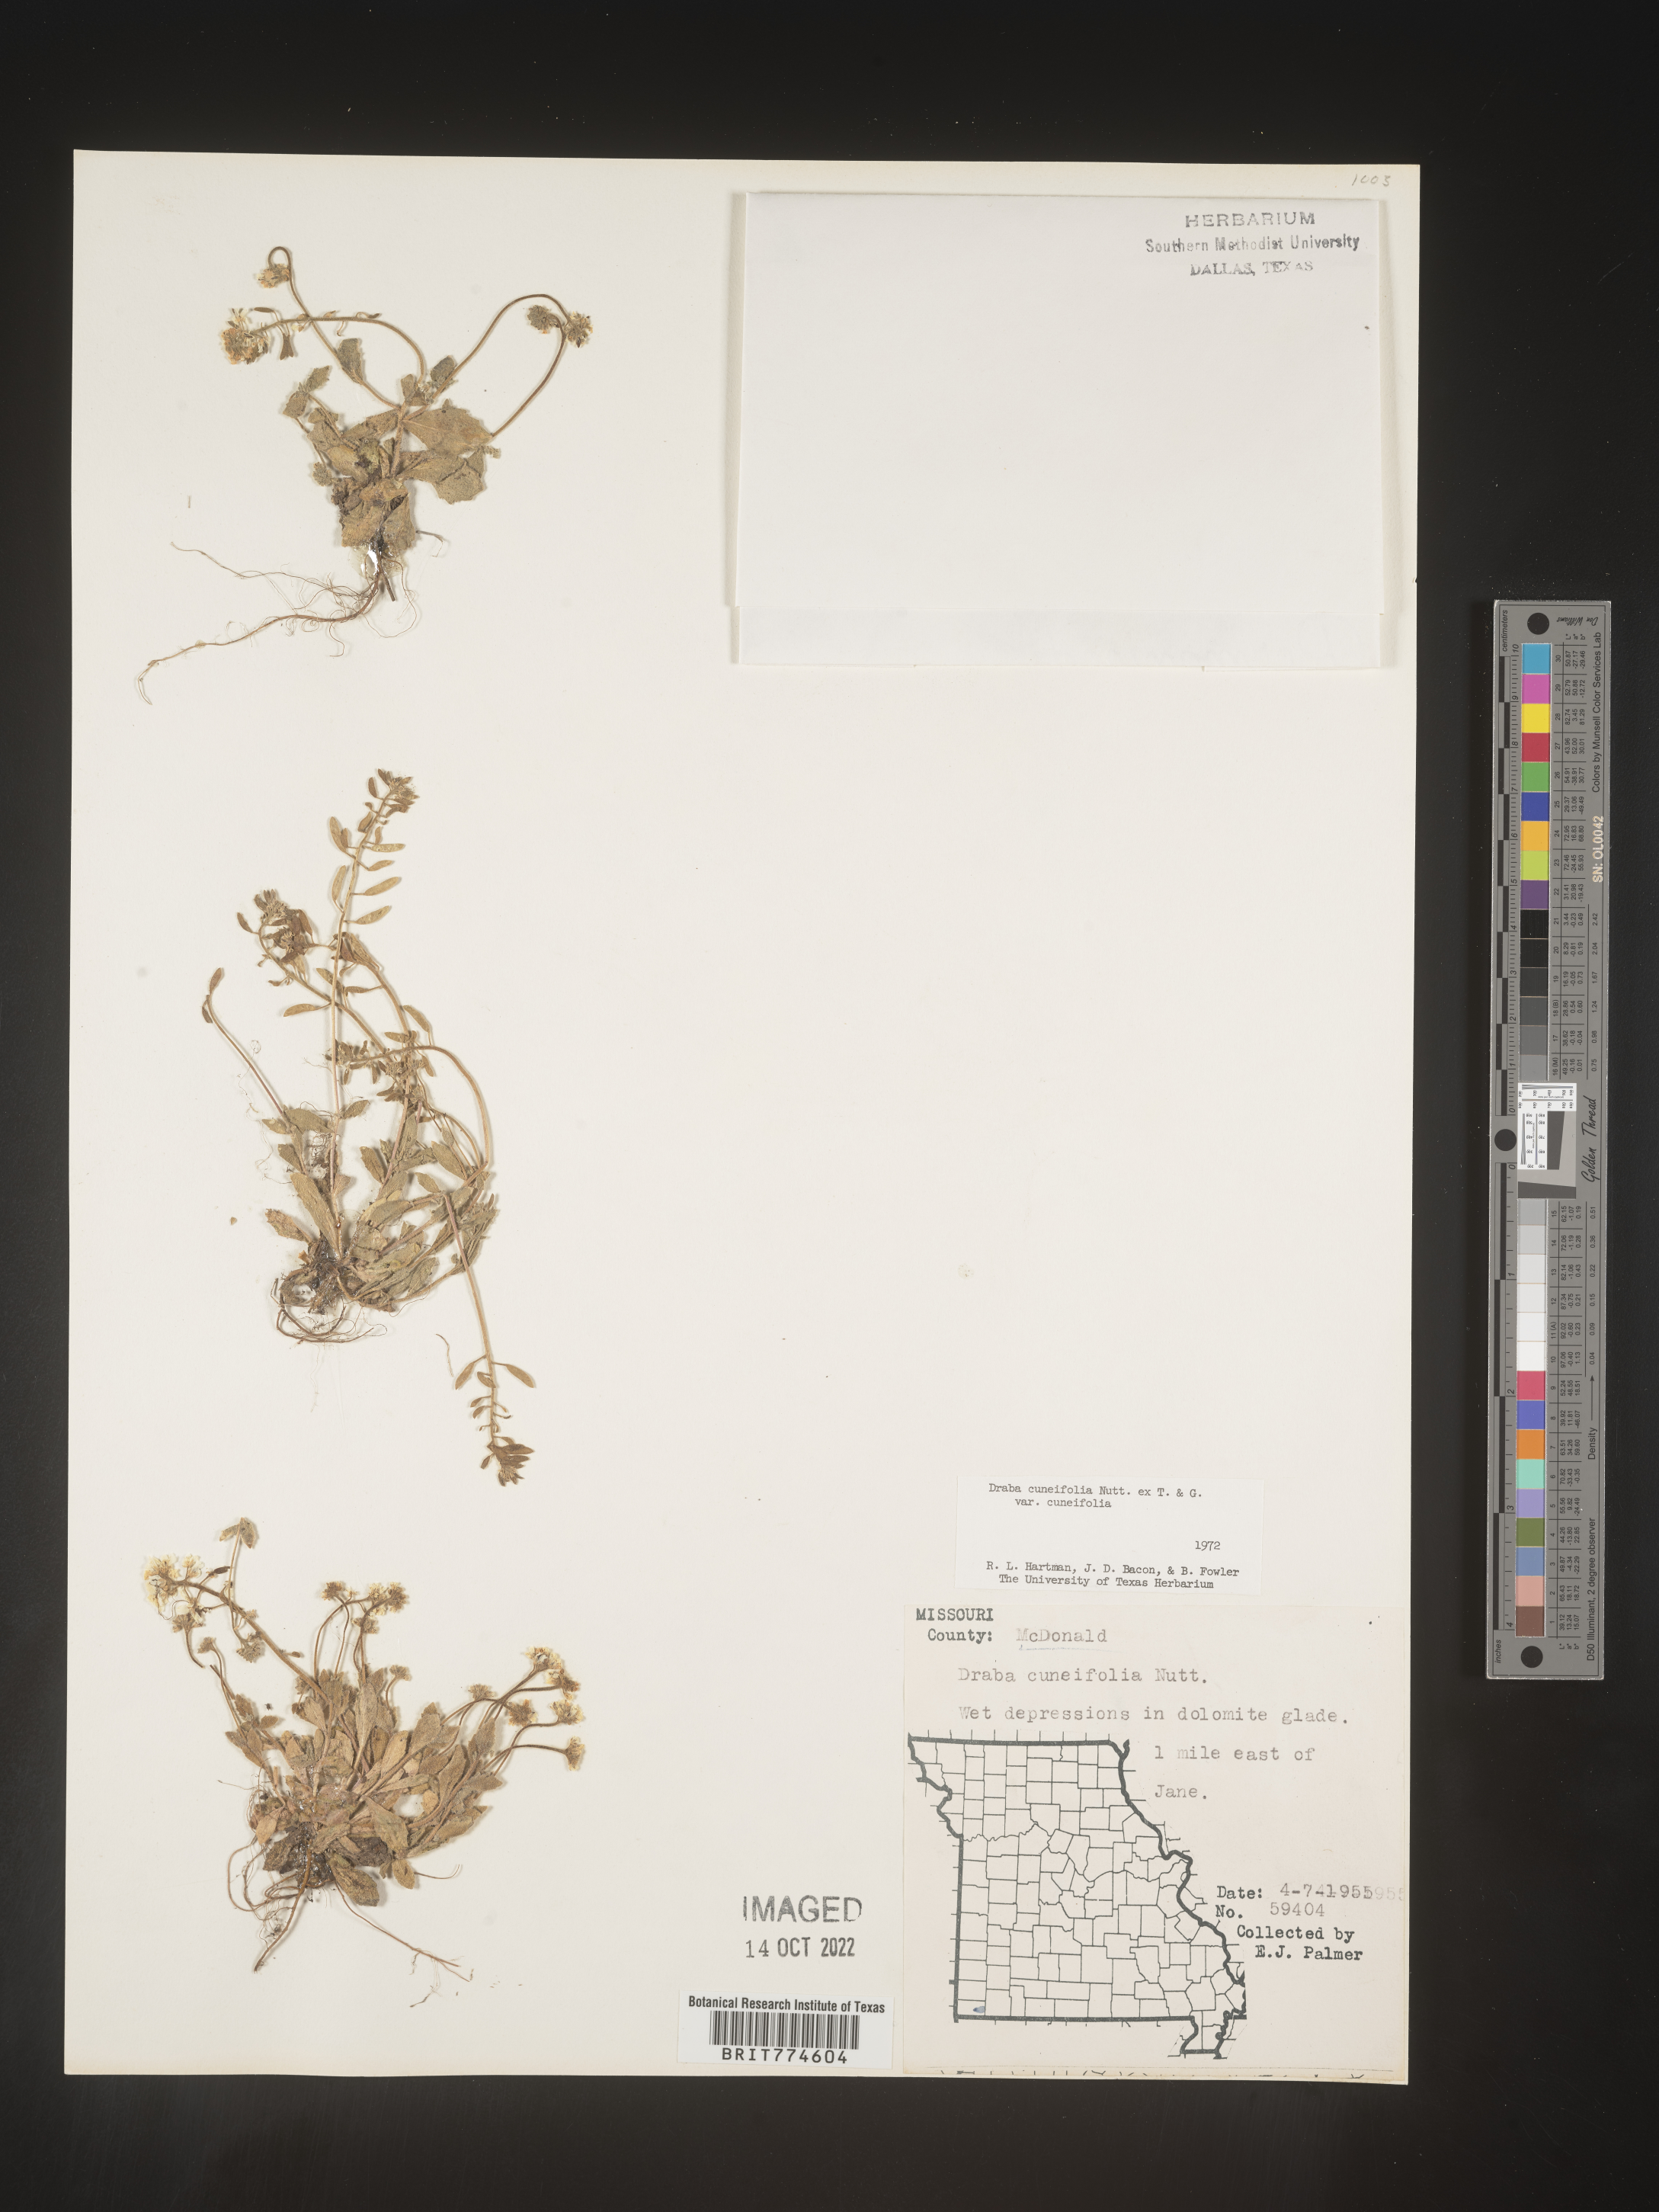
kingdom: Plantae
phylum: Tracheophyta
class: Magnoliopsida
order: Brassicales
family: Brassicaceae
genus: Tomostima
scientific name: Tomostima cuneifolia
